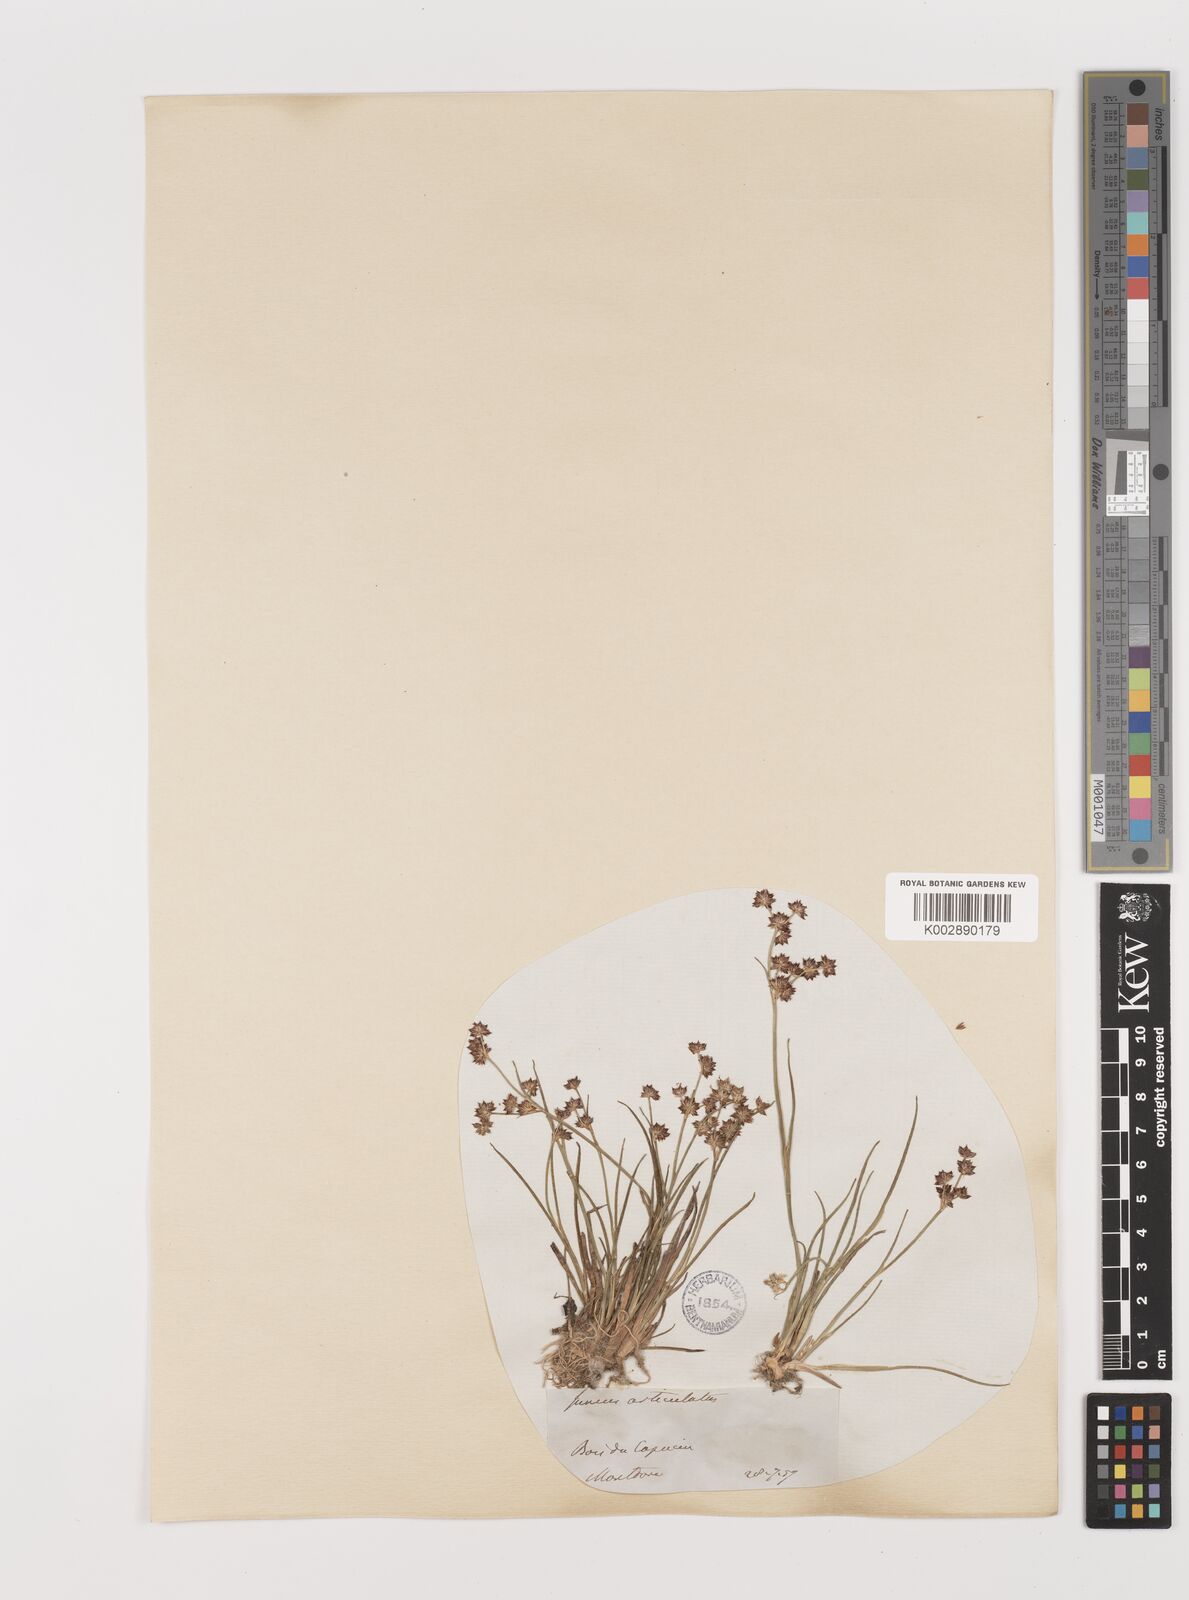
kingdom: Plantae
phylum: Tracheophyta
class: Liliopsida
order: Poales
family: Juncaceae
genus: Juncus
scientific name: Juncus articulatus
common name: Jointed rush
